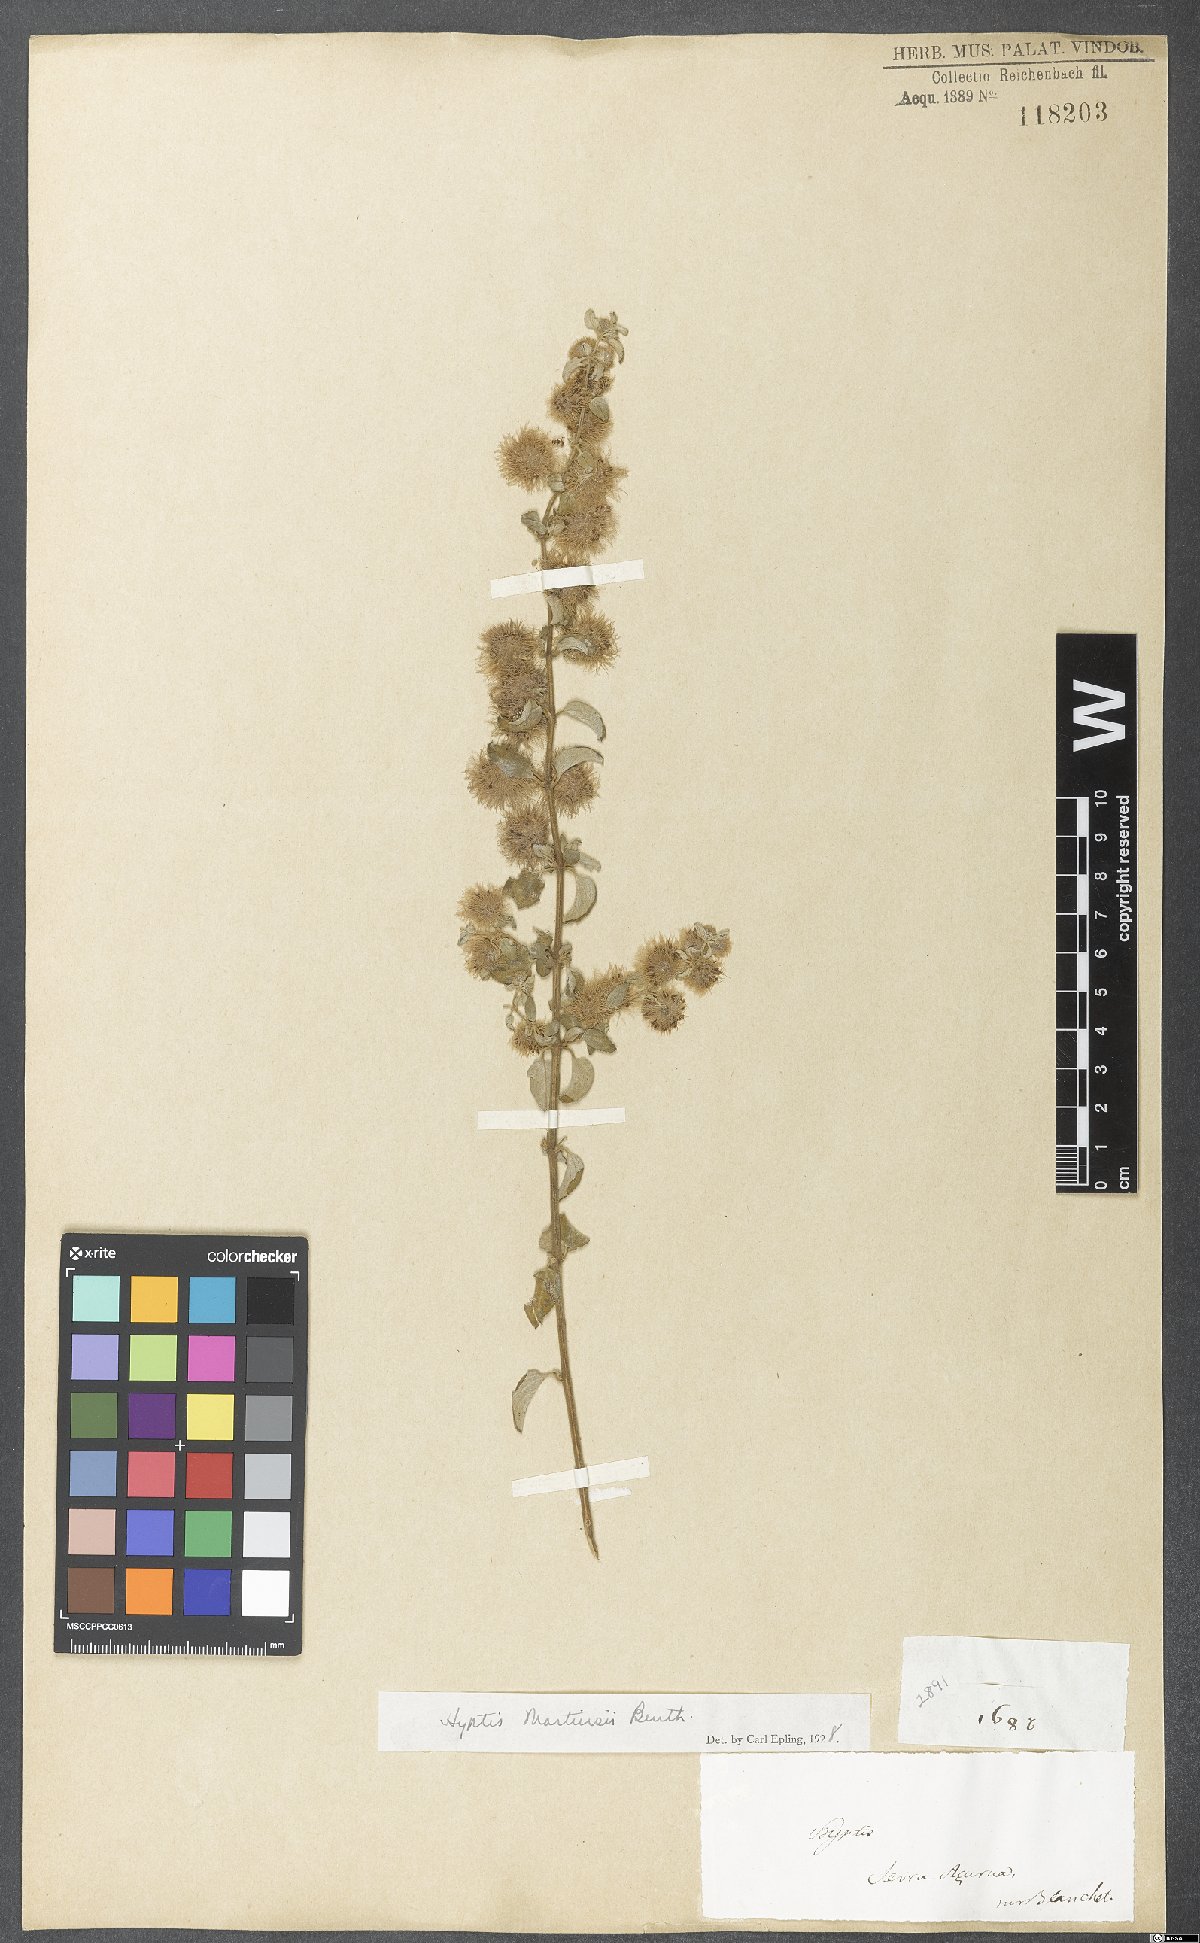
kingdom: Plantae
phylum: Tracheophyta
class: Magnoliopsida
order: Lamiales
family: Lamiaceae
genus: Medusantha
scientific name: Medusantha martiusii
